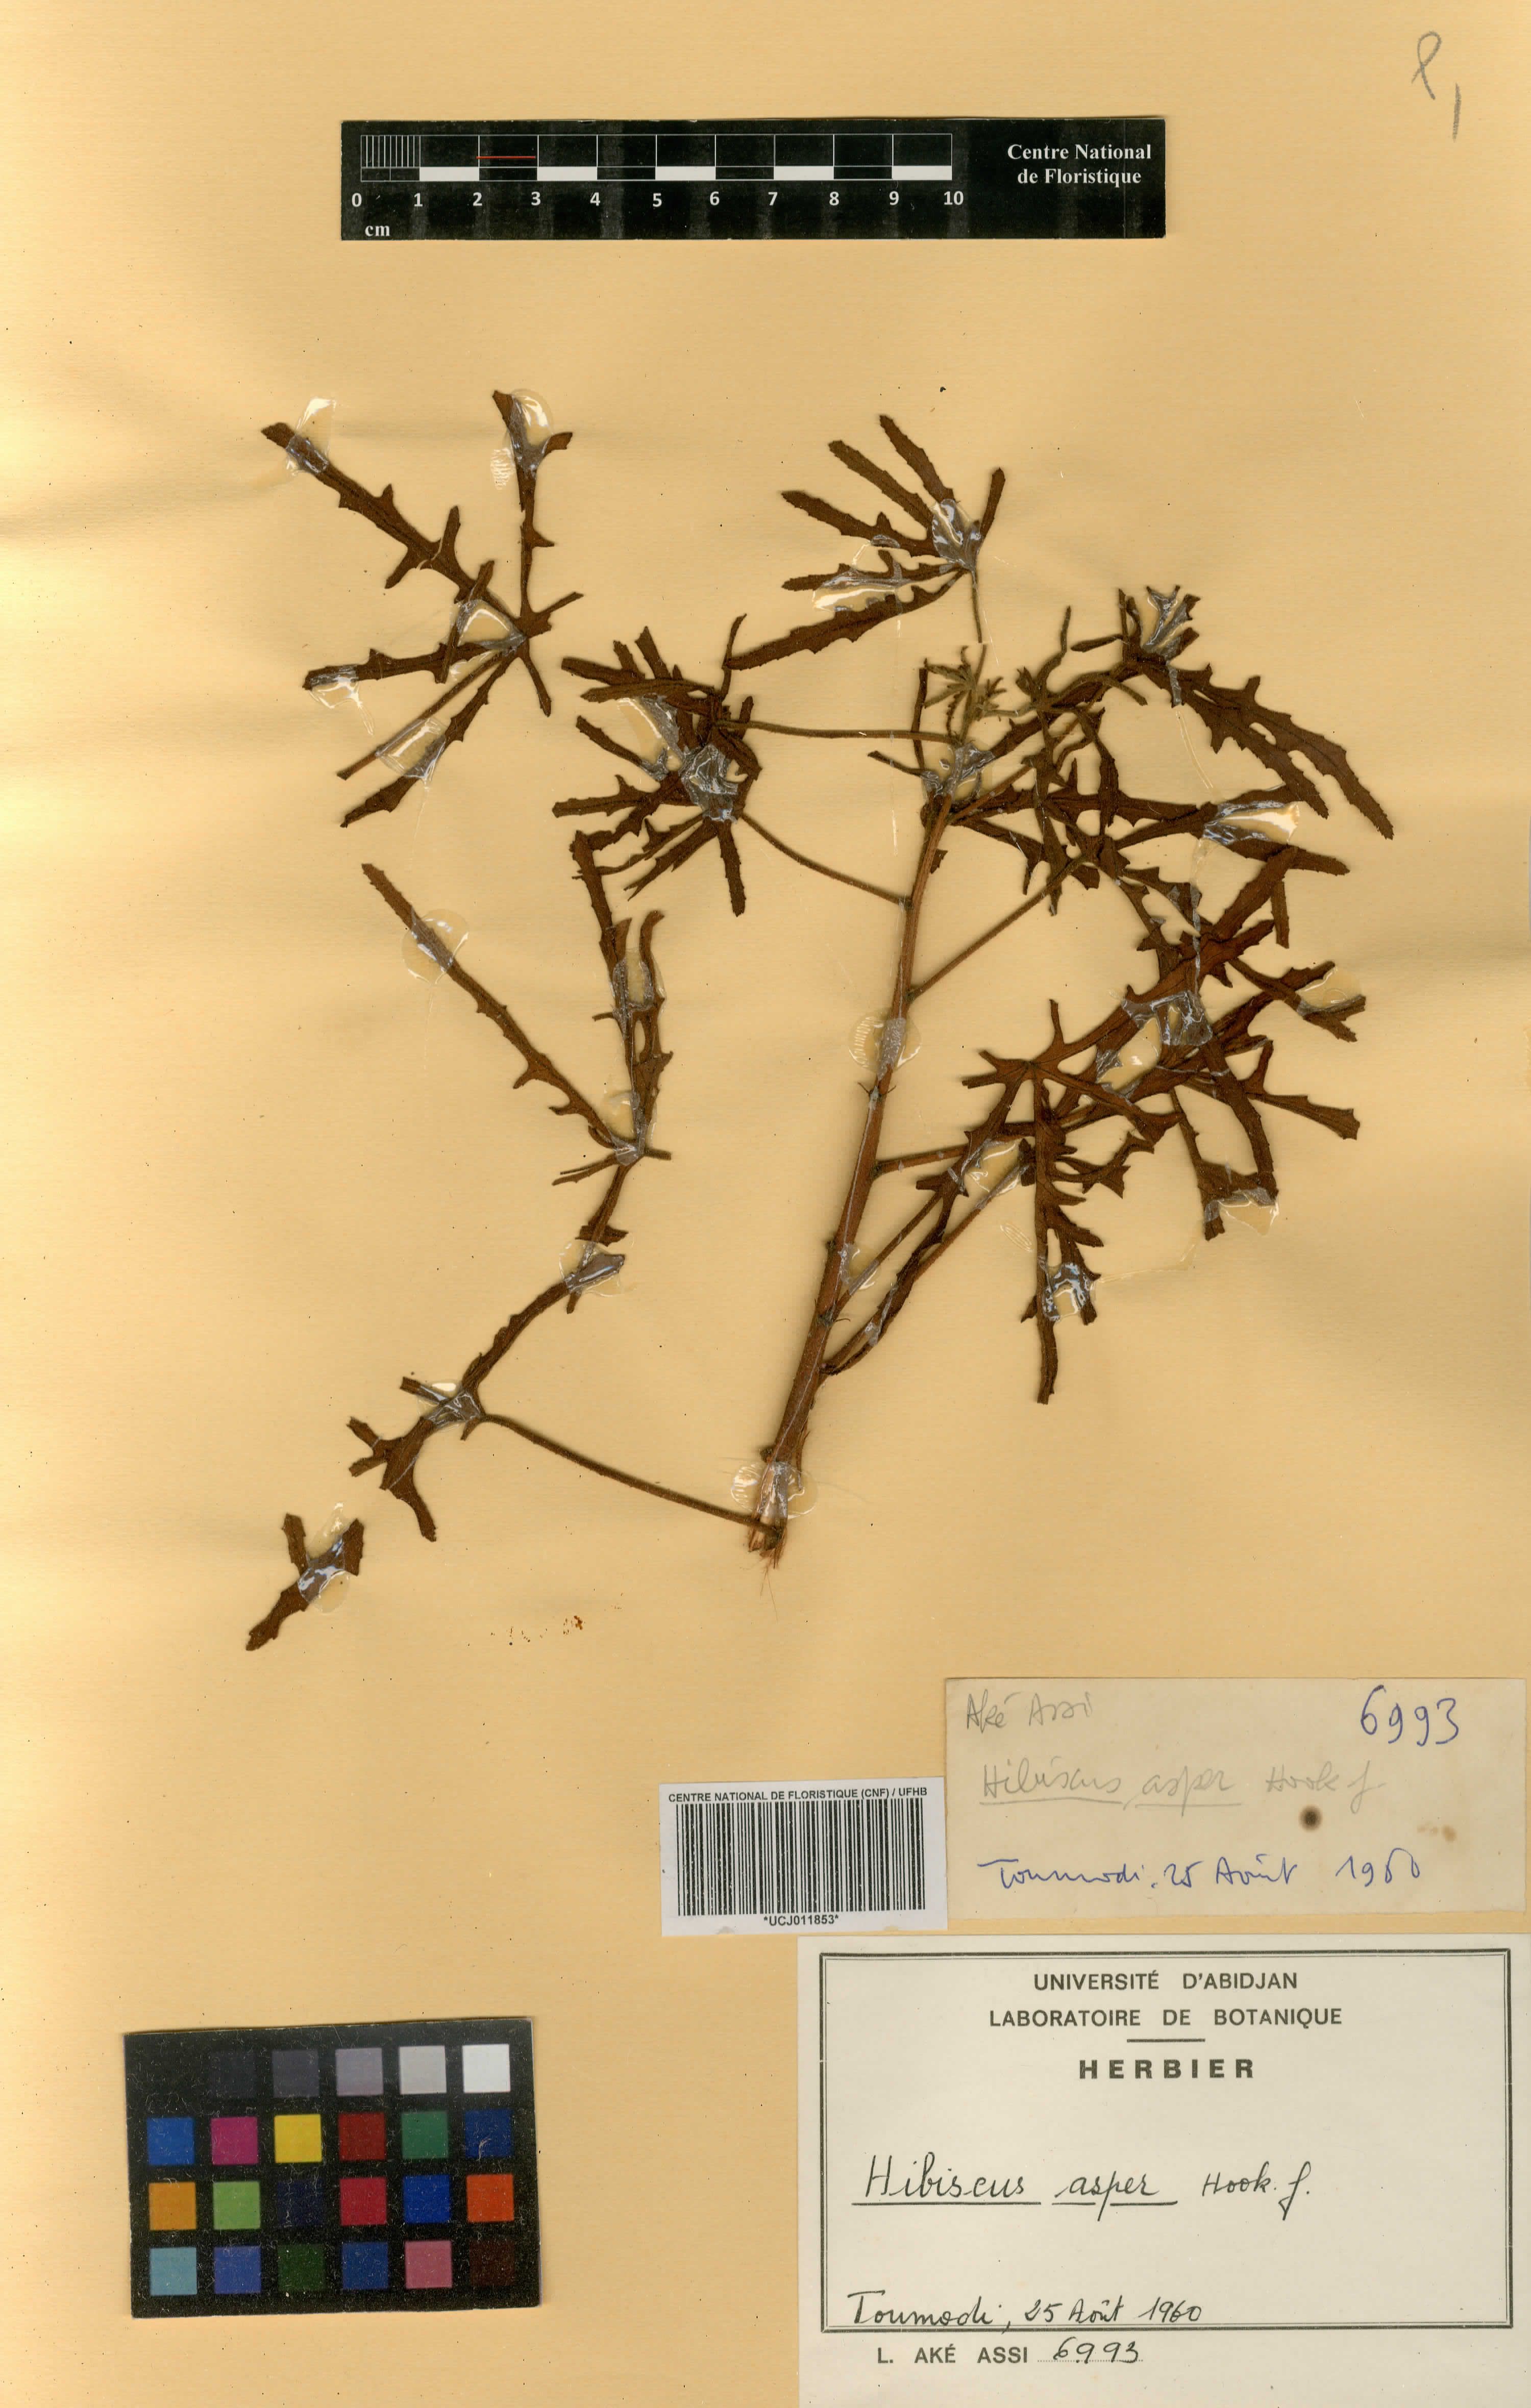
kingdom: Plantae
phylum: Tracheophyta
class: Magnoliopsida
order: Malvales
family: Malvaceae
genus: Hibiscus
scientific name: Hibiscus cannabinus
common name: Brown indianhemp
